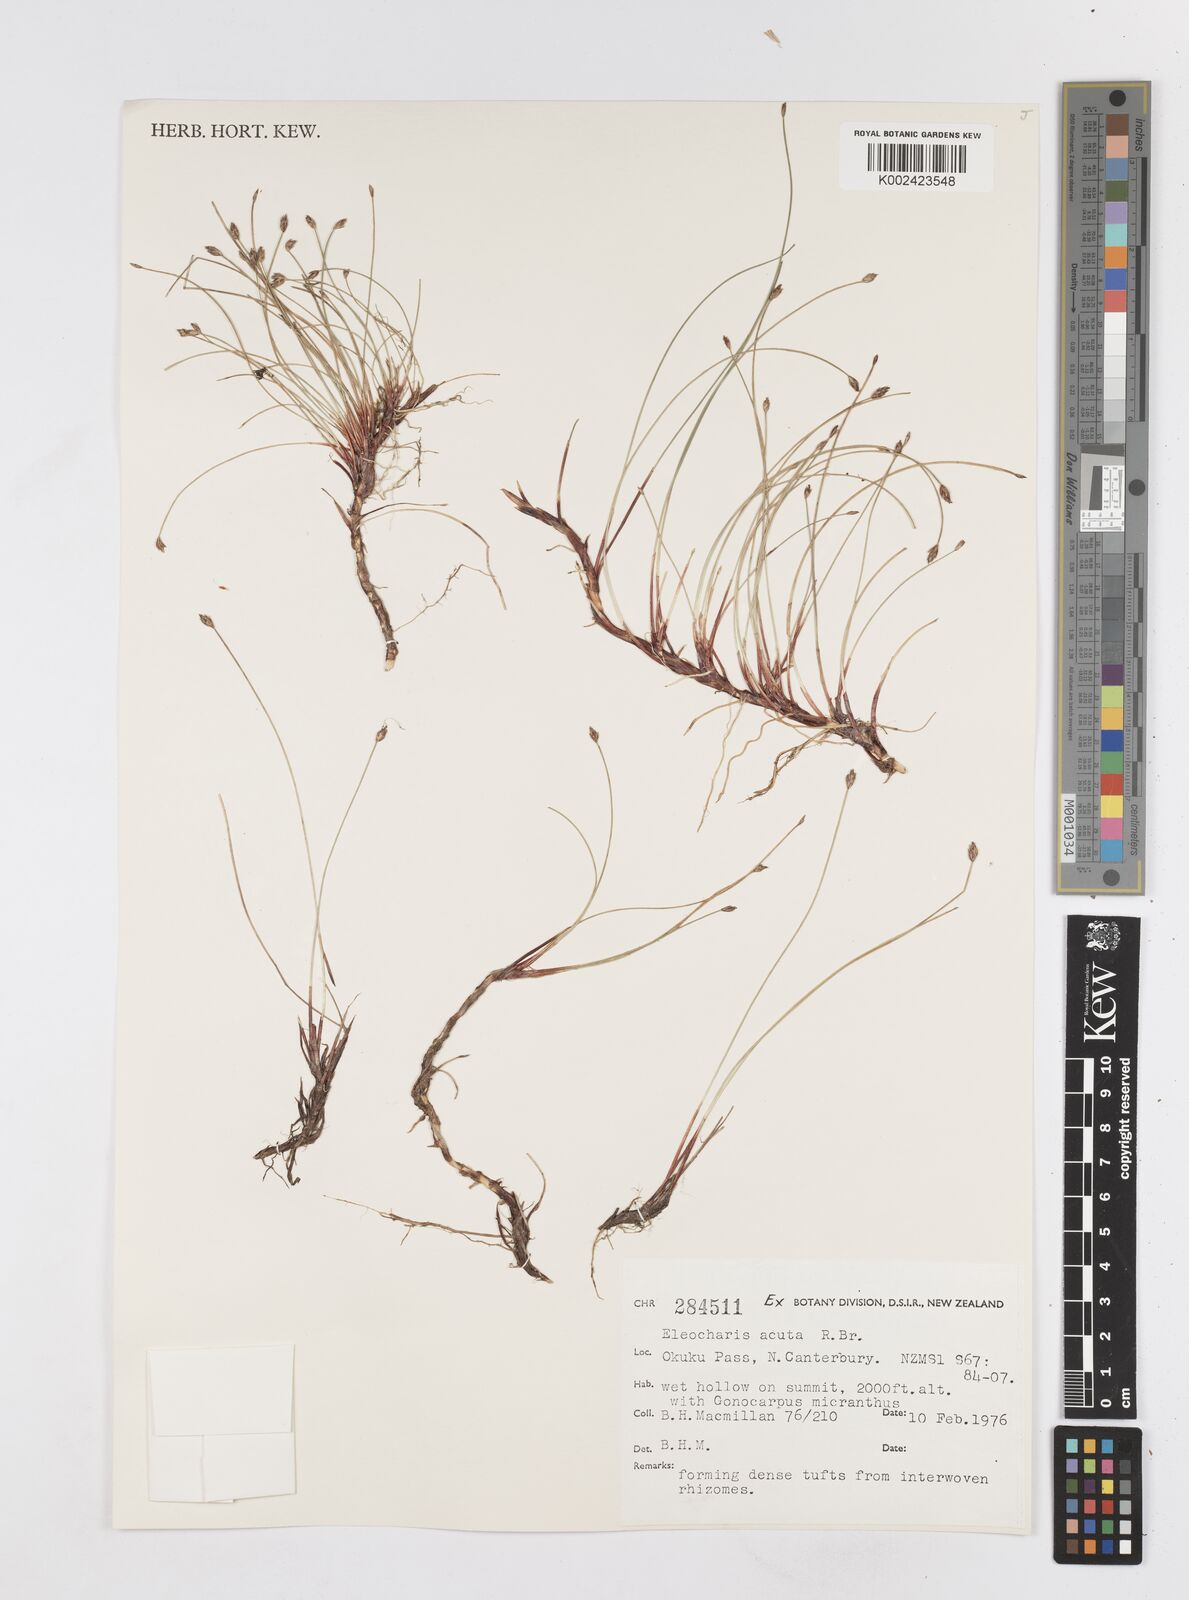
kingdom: Plantae
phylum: Tracheophyta
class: Liliopsida
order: Poales
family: Cyperaceae
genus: Eleocharis
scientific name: Eleocharis acuta
